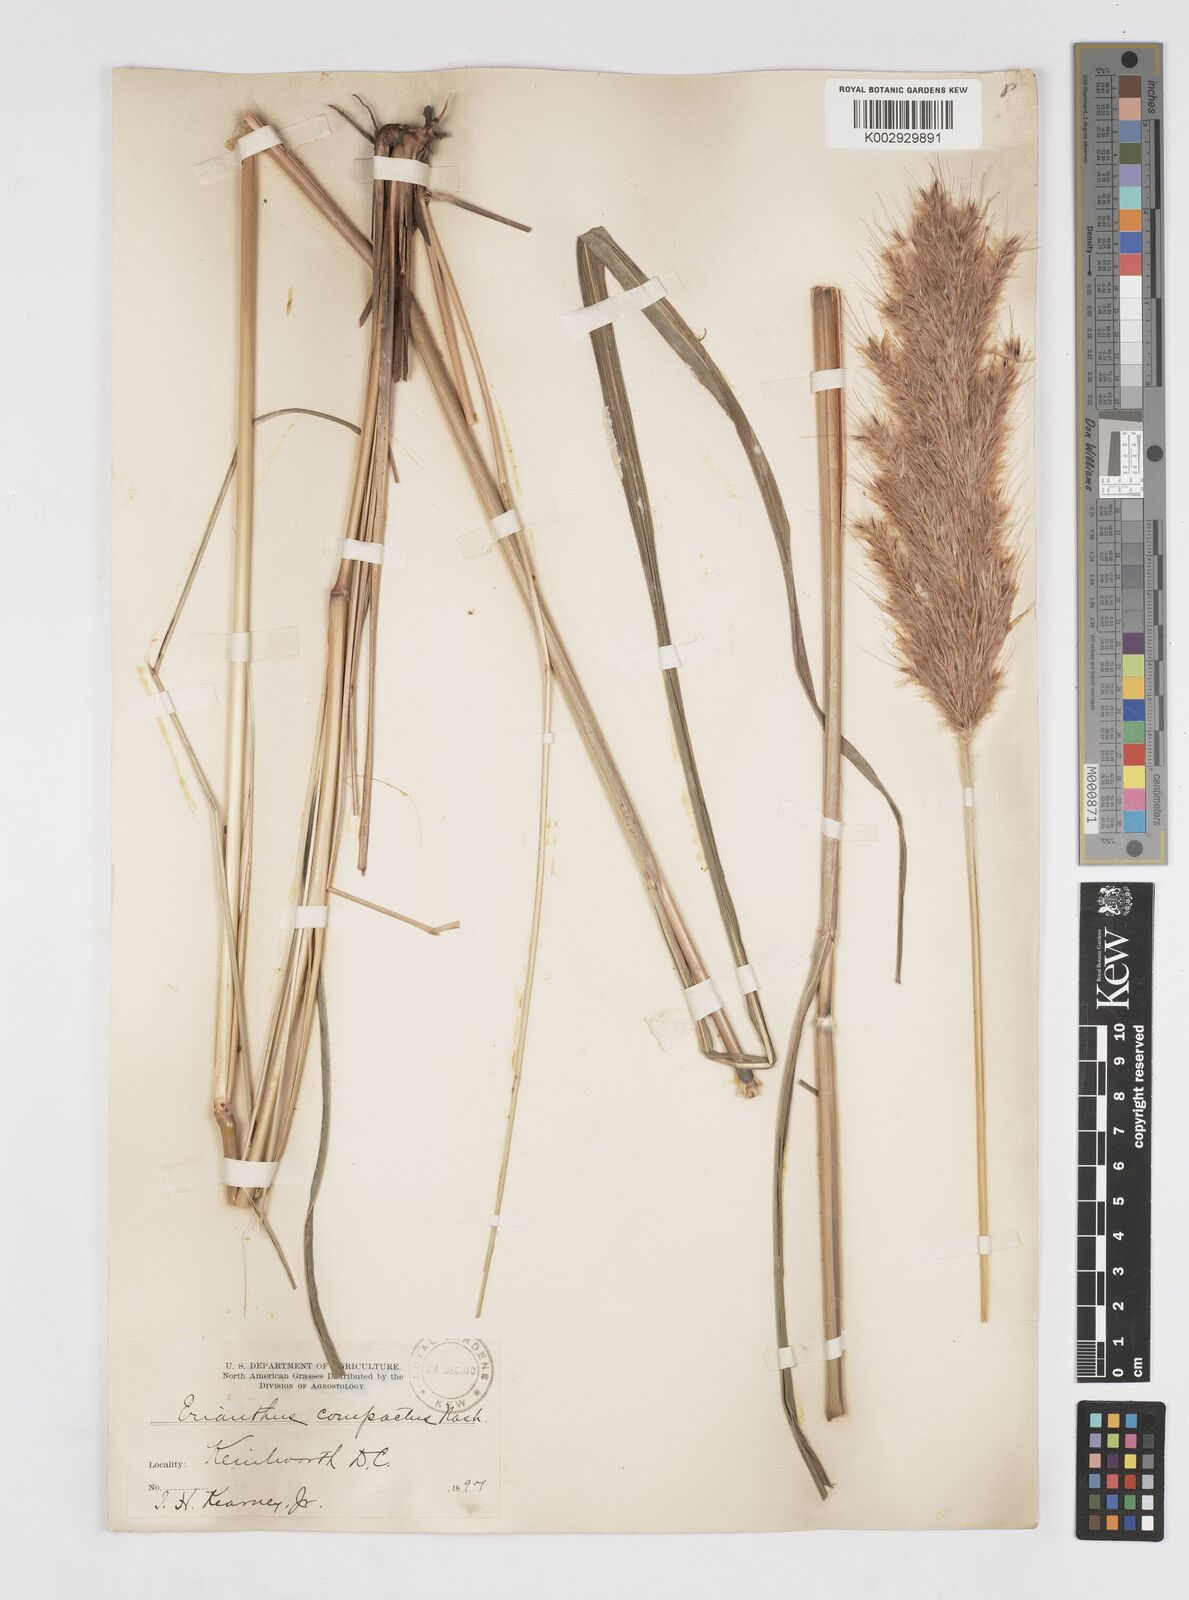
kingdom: Plantae
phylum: Tracheophyta
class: Liliopsida
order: Poales
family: Poaceae
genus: Erianthus
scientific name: Erianthus giganteus
